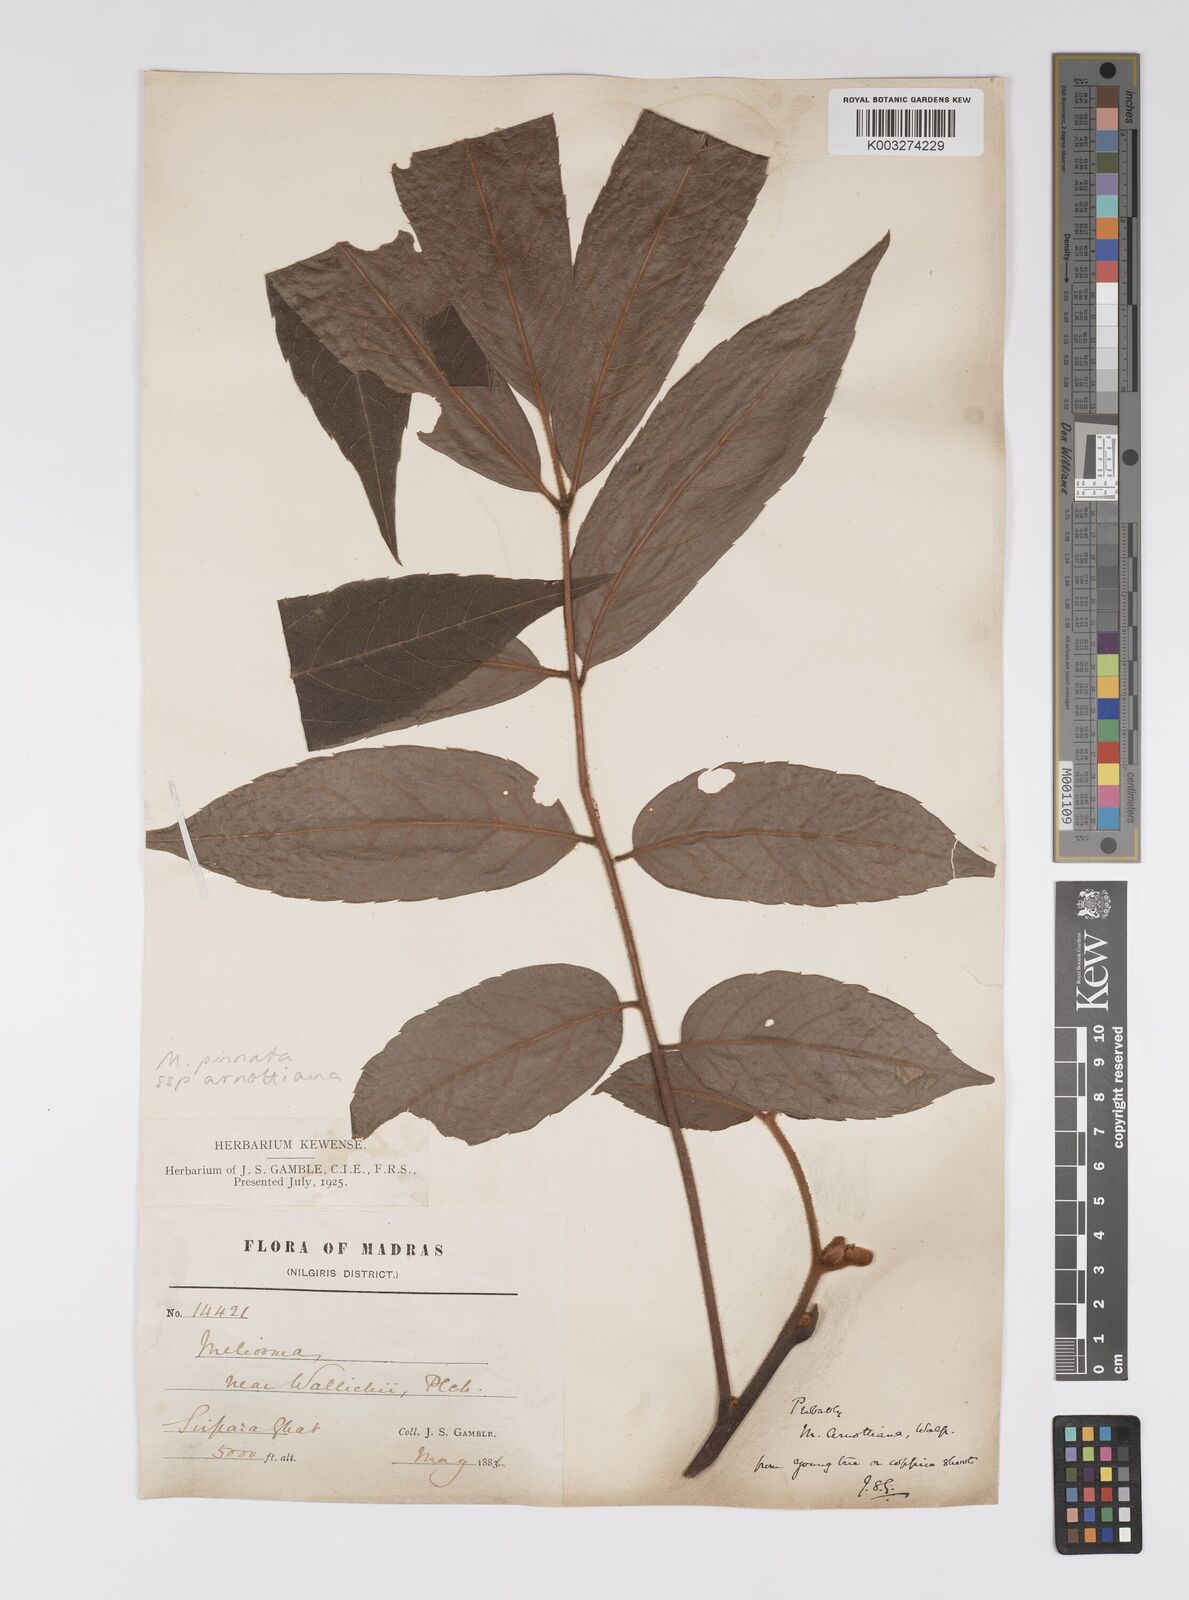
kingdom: Plantae
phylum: Tracheophyta
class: Magnoliopsida
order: Proteales
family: Sabiaceae
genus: Meliosma
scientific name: Meliosma rhoifolia
